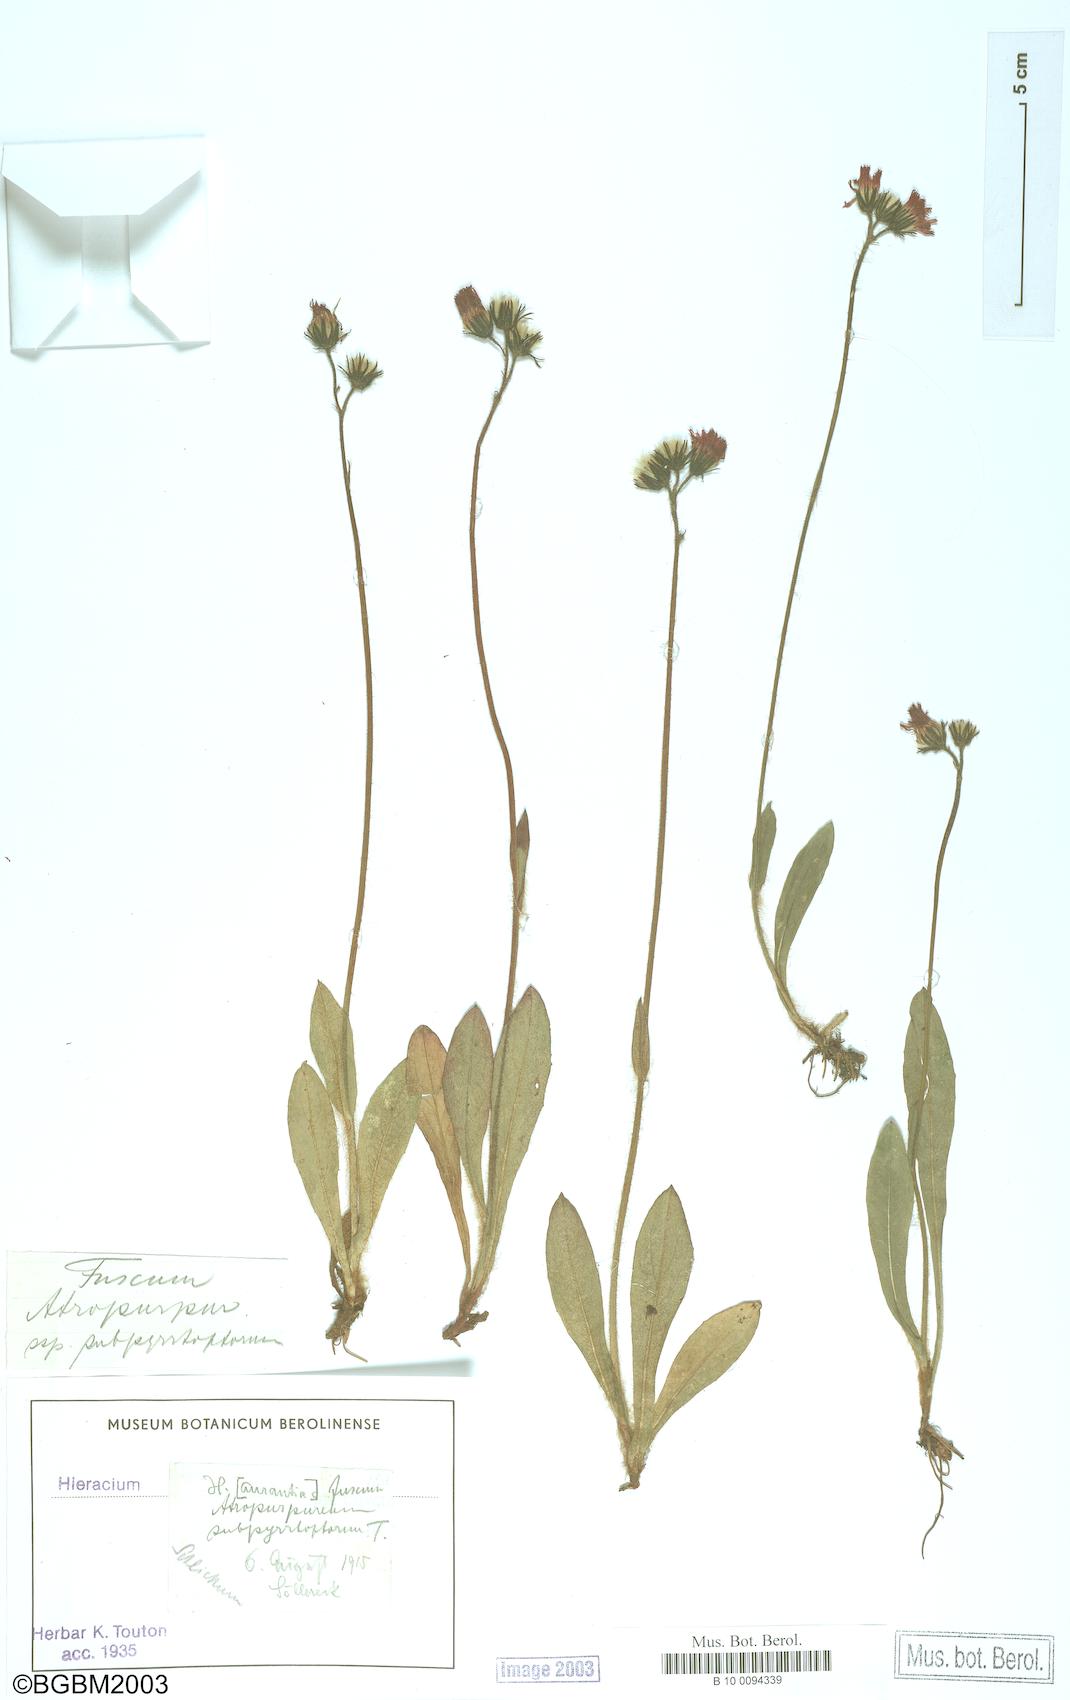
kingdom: Plantae
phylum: Tracheophyta
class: Magnoliopsida
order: Asterales
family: Asteraceae
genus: Hieracium
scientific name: Hieracium fuscum
